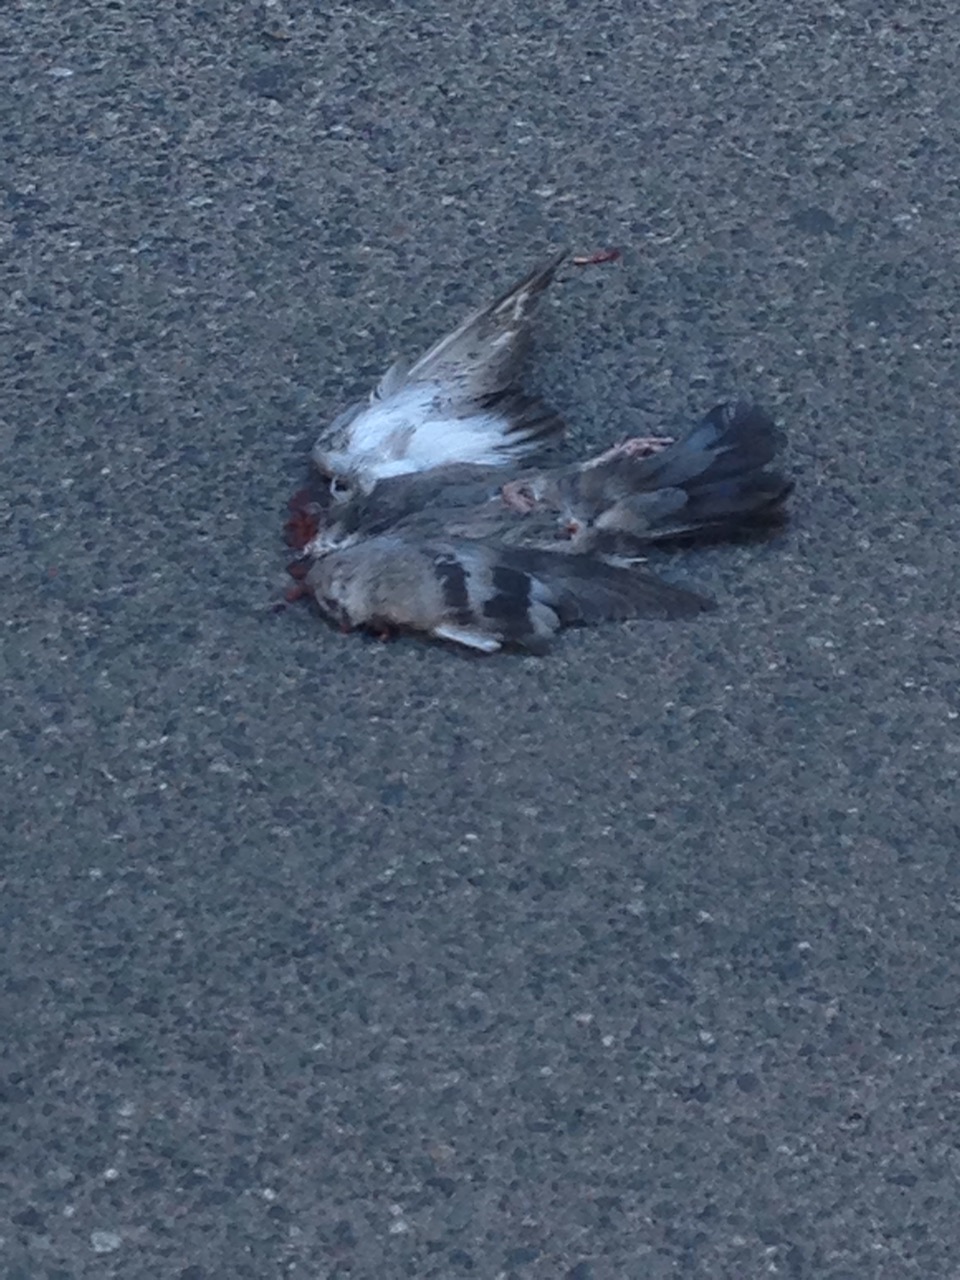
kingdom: Animalia
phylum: Chordata
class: Aves
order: Columbiformes
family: Columbidae
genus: Columba
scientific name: Columba livia
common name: Rock pigeon
